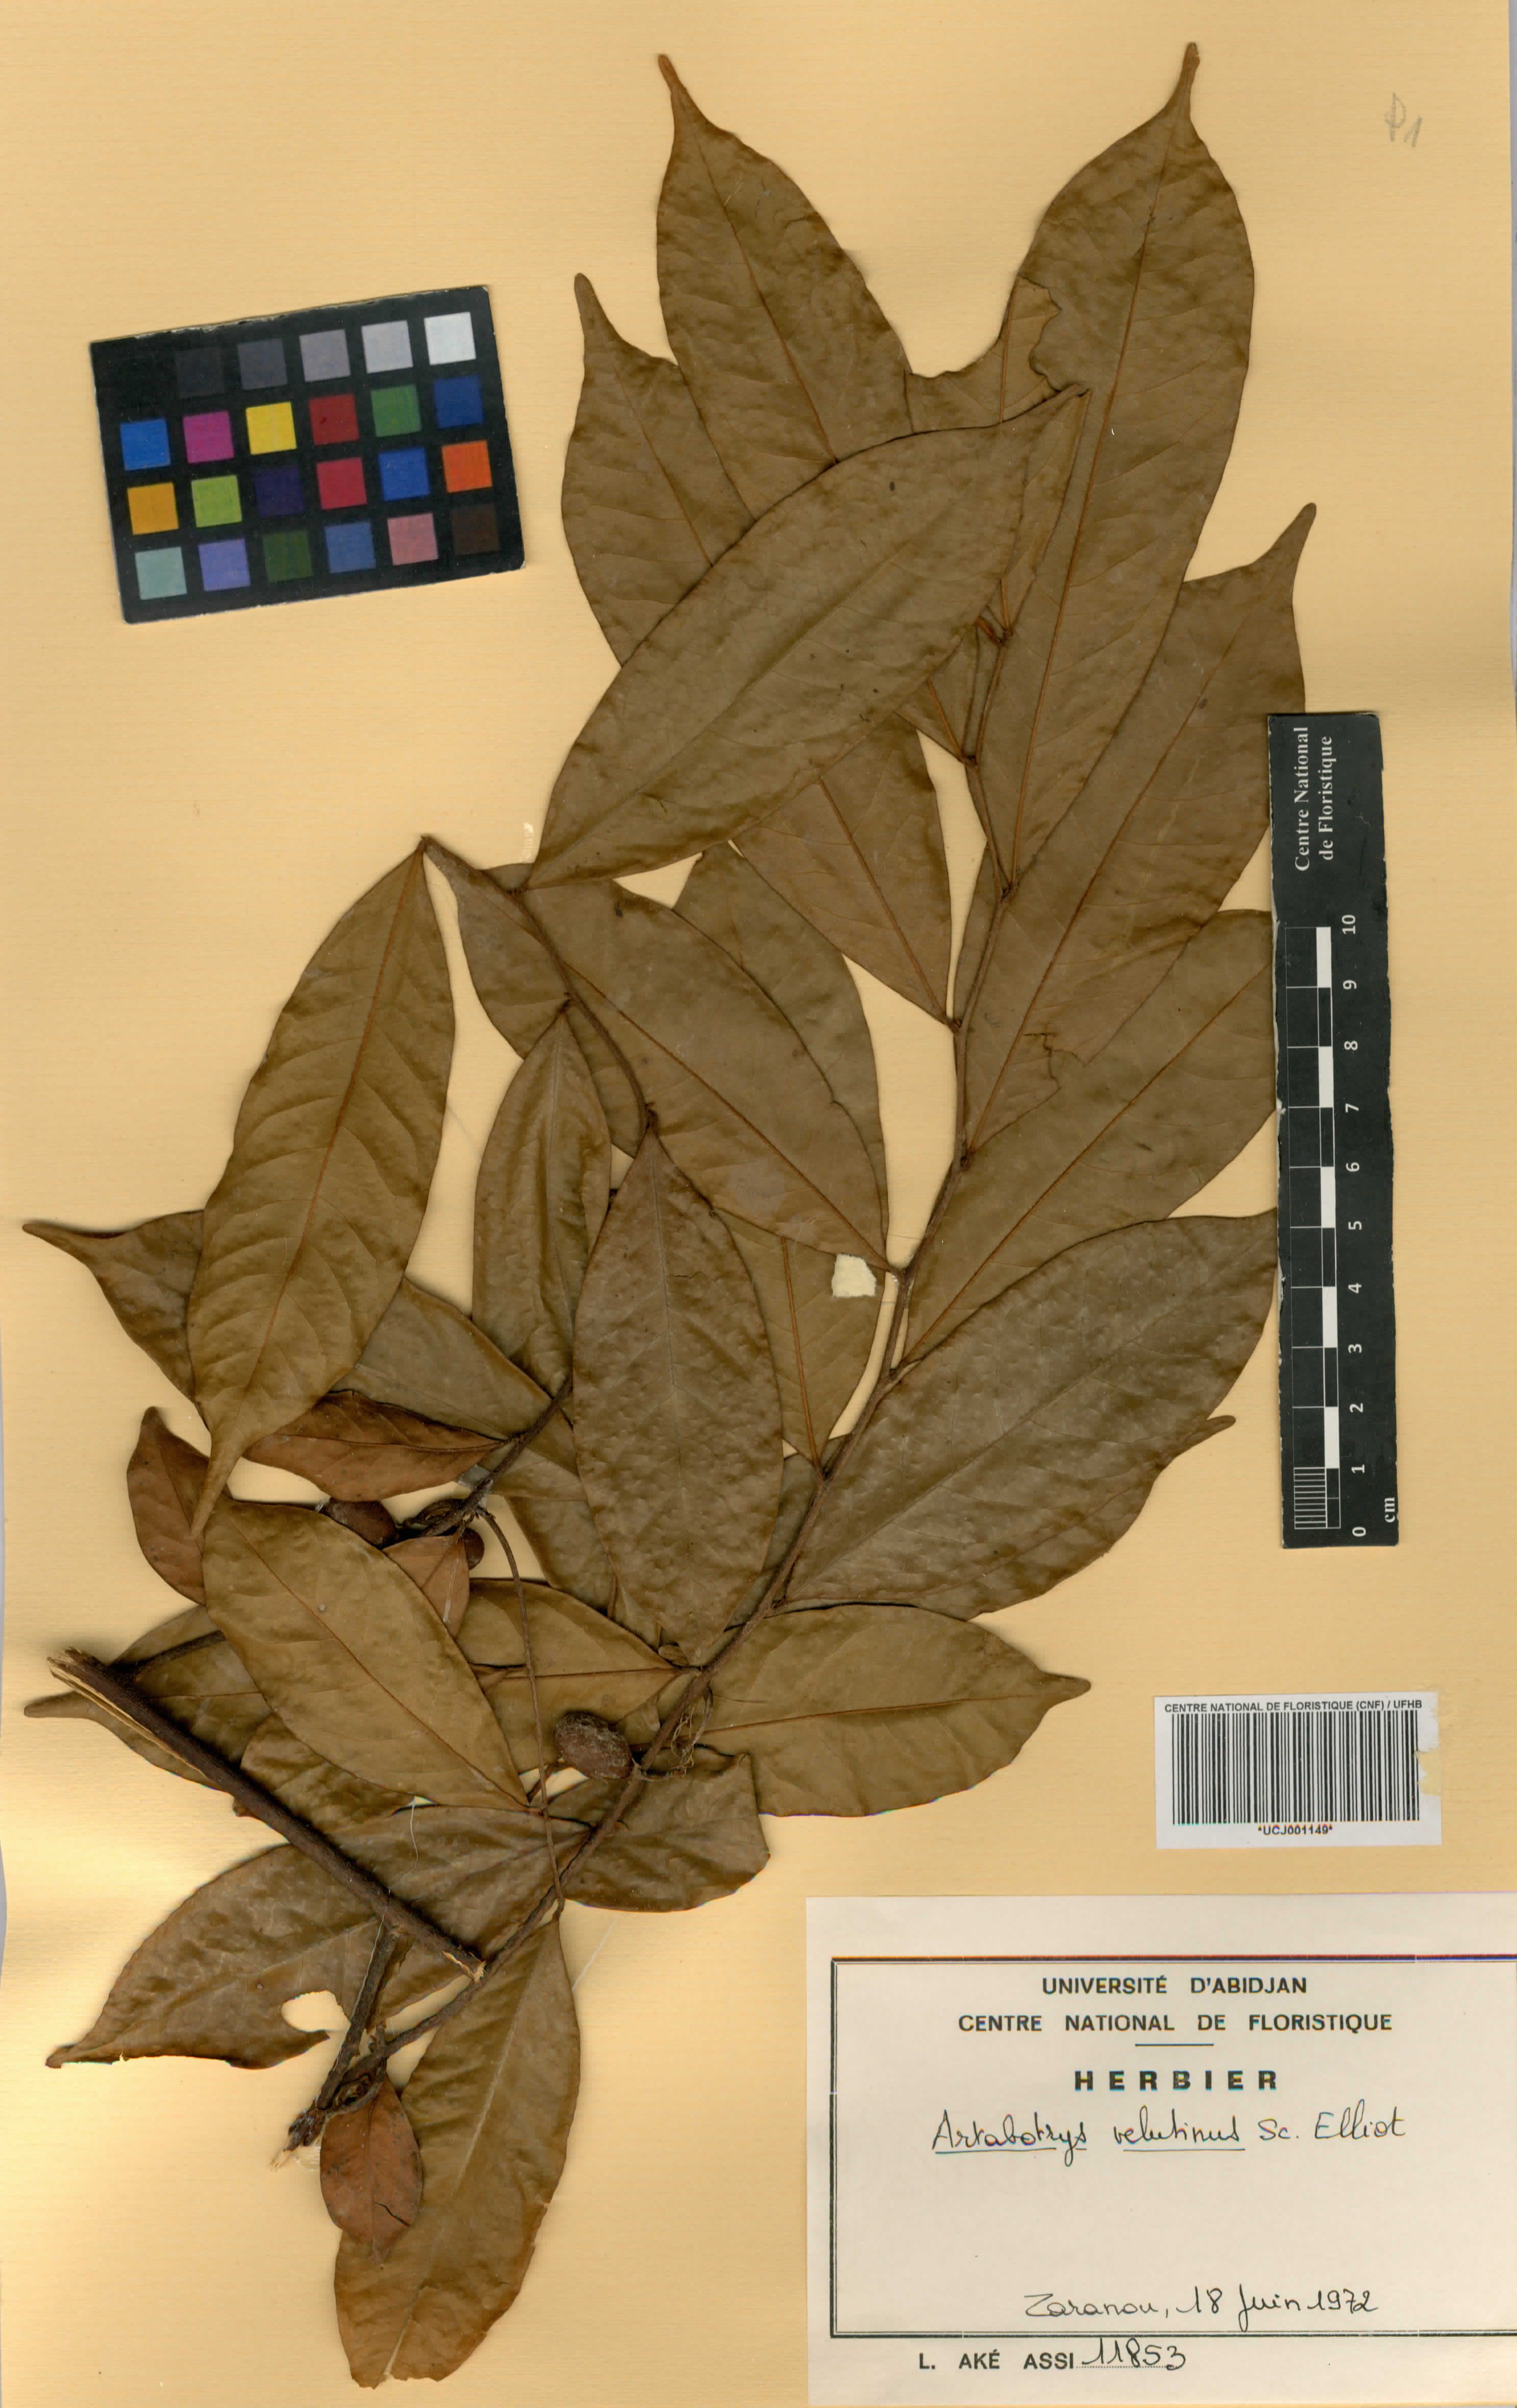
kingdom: Plantae
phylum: Tracheophyta
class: Magnoliopsida
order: Magnoliales
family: Annonaceae
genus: Artabotrys
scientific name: Artabotrys velutinus
